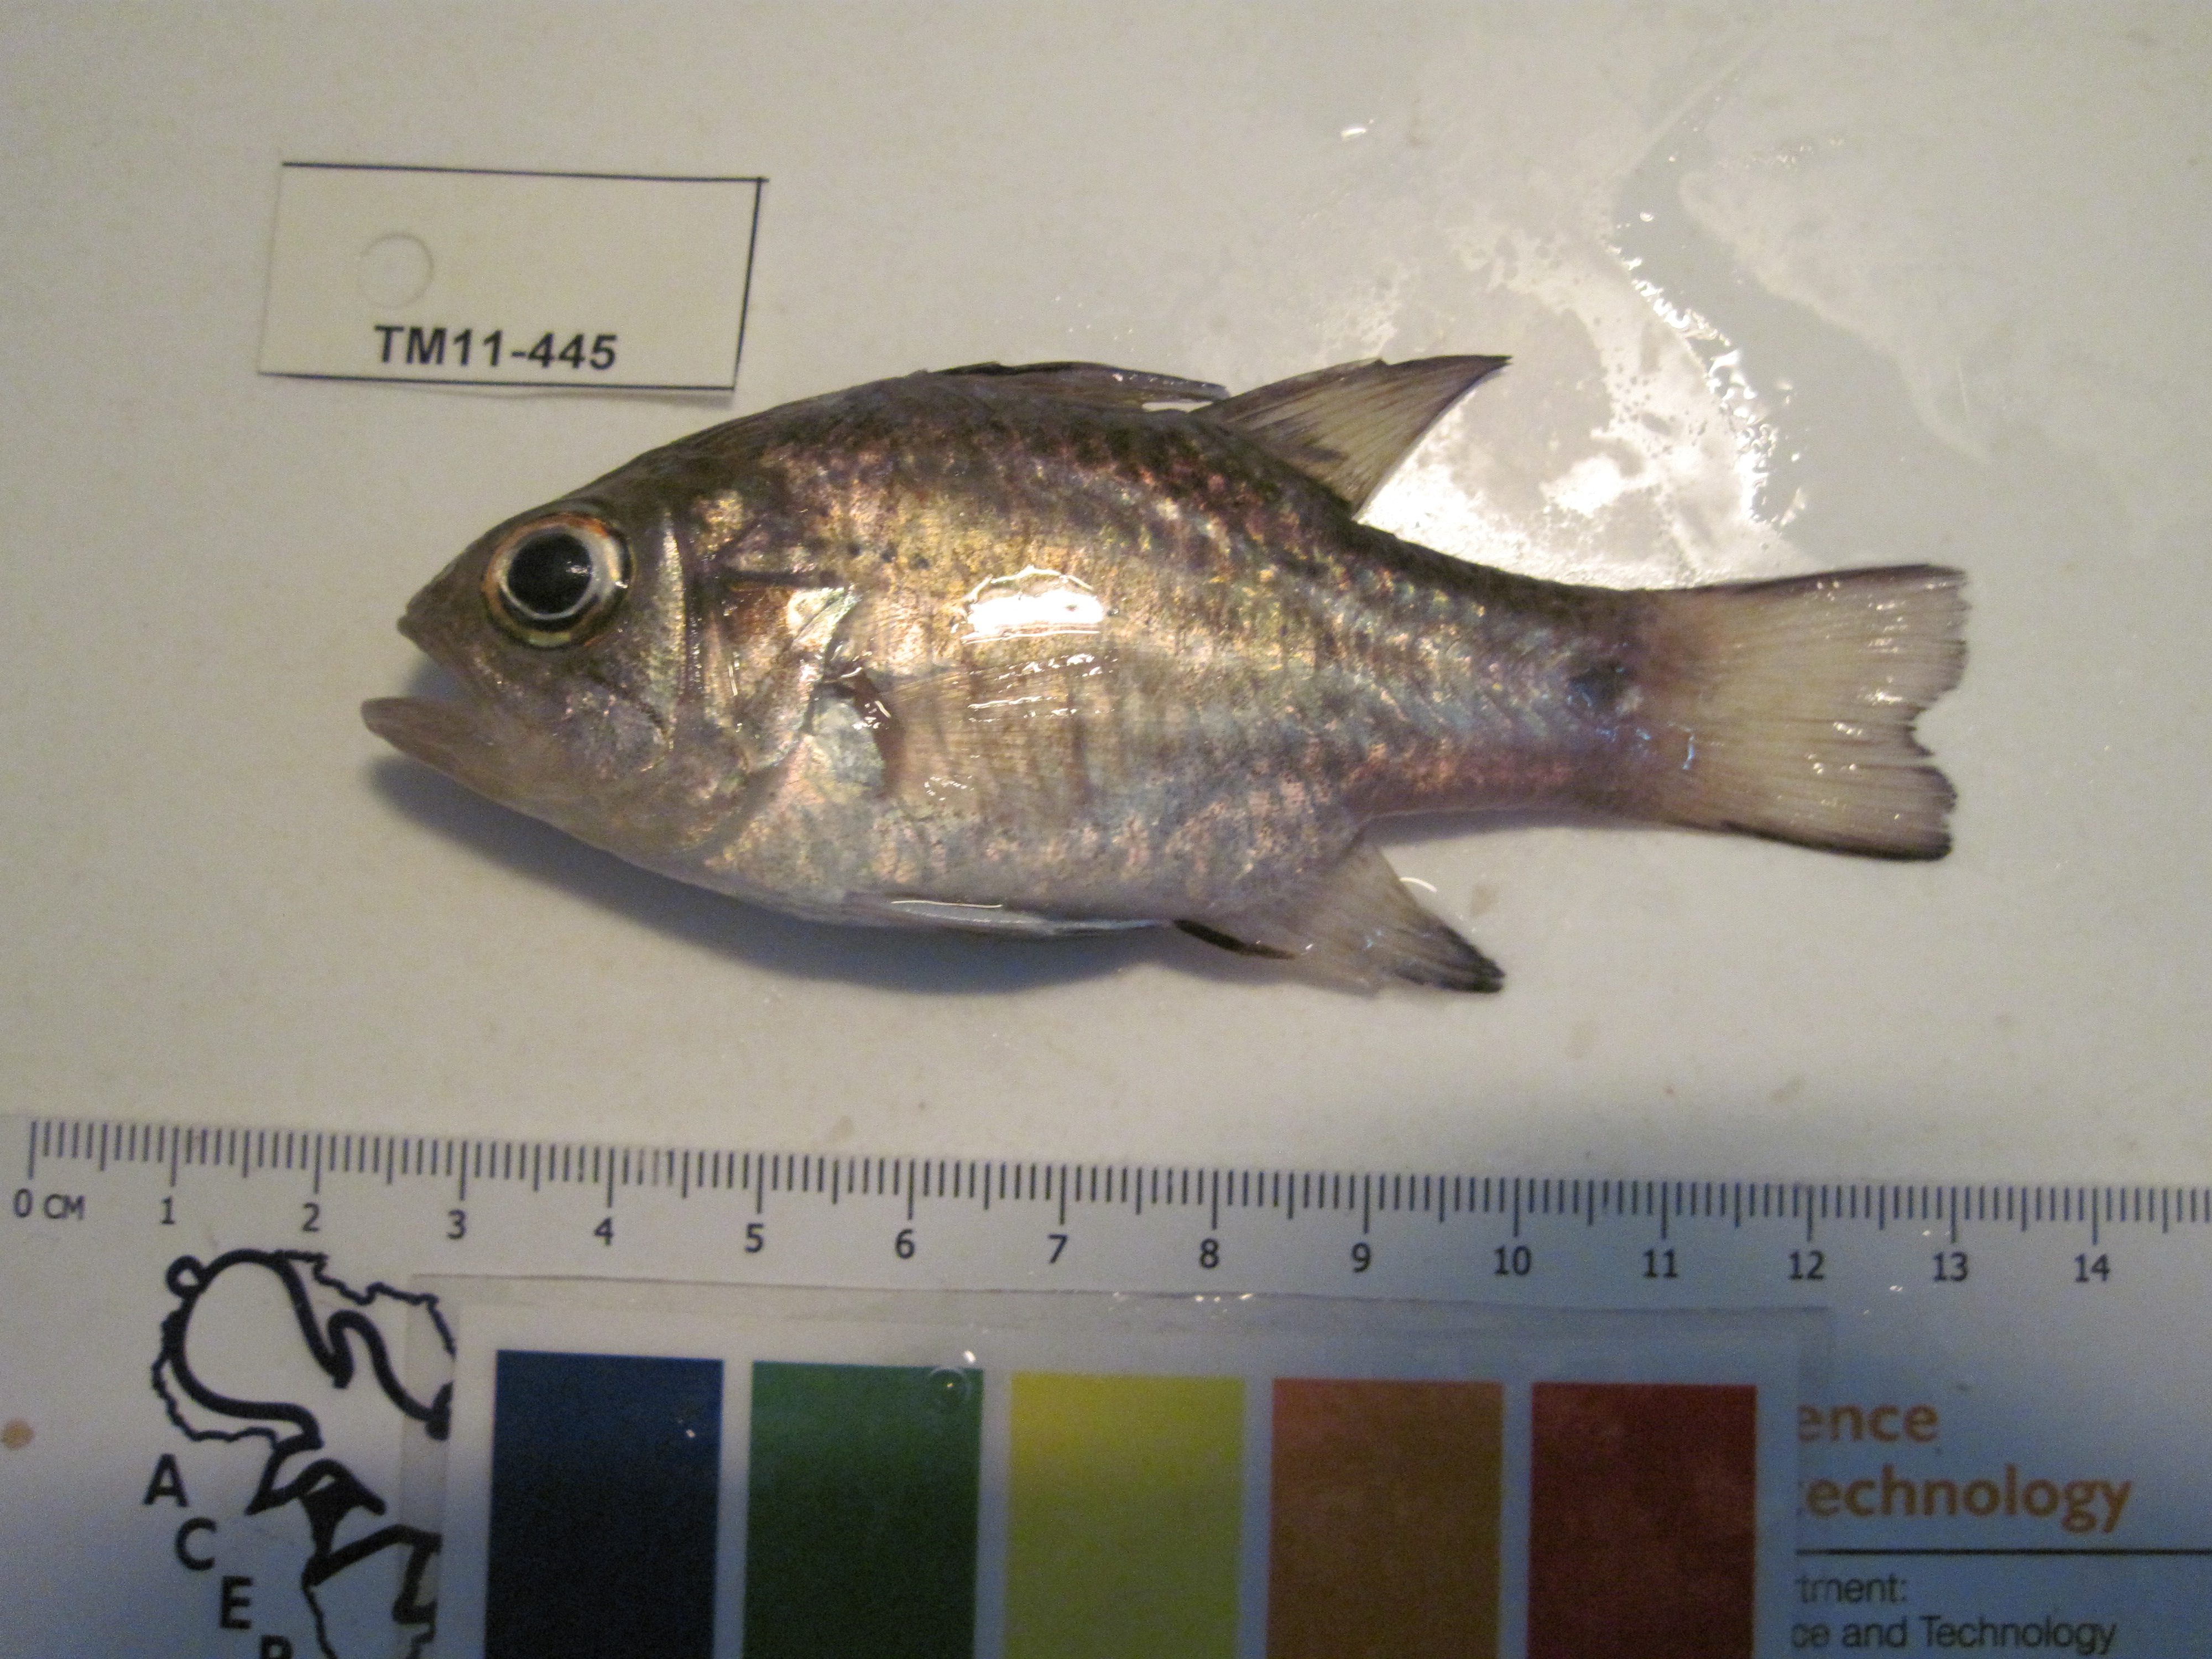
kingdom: Animalia
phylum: Chordata
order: Perciformes
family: Apogonidae
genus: Apogonichthyoides
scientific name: Apogonichthyoides taeniatus
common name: Twobelt cardinal
